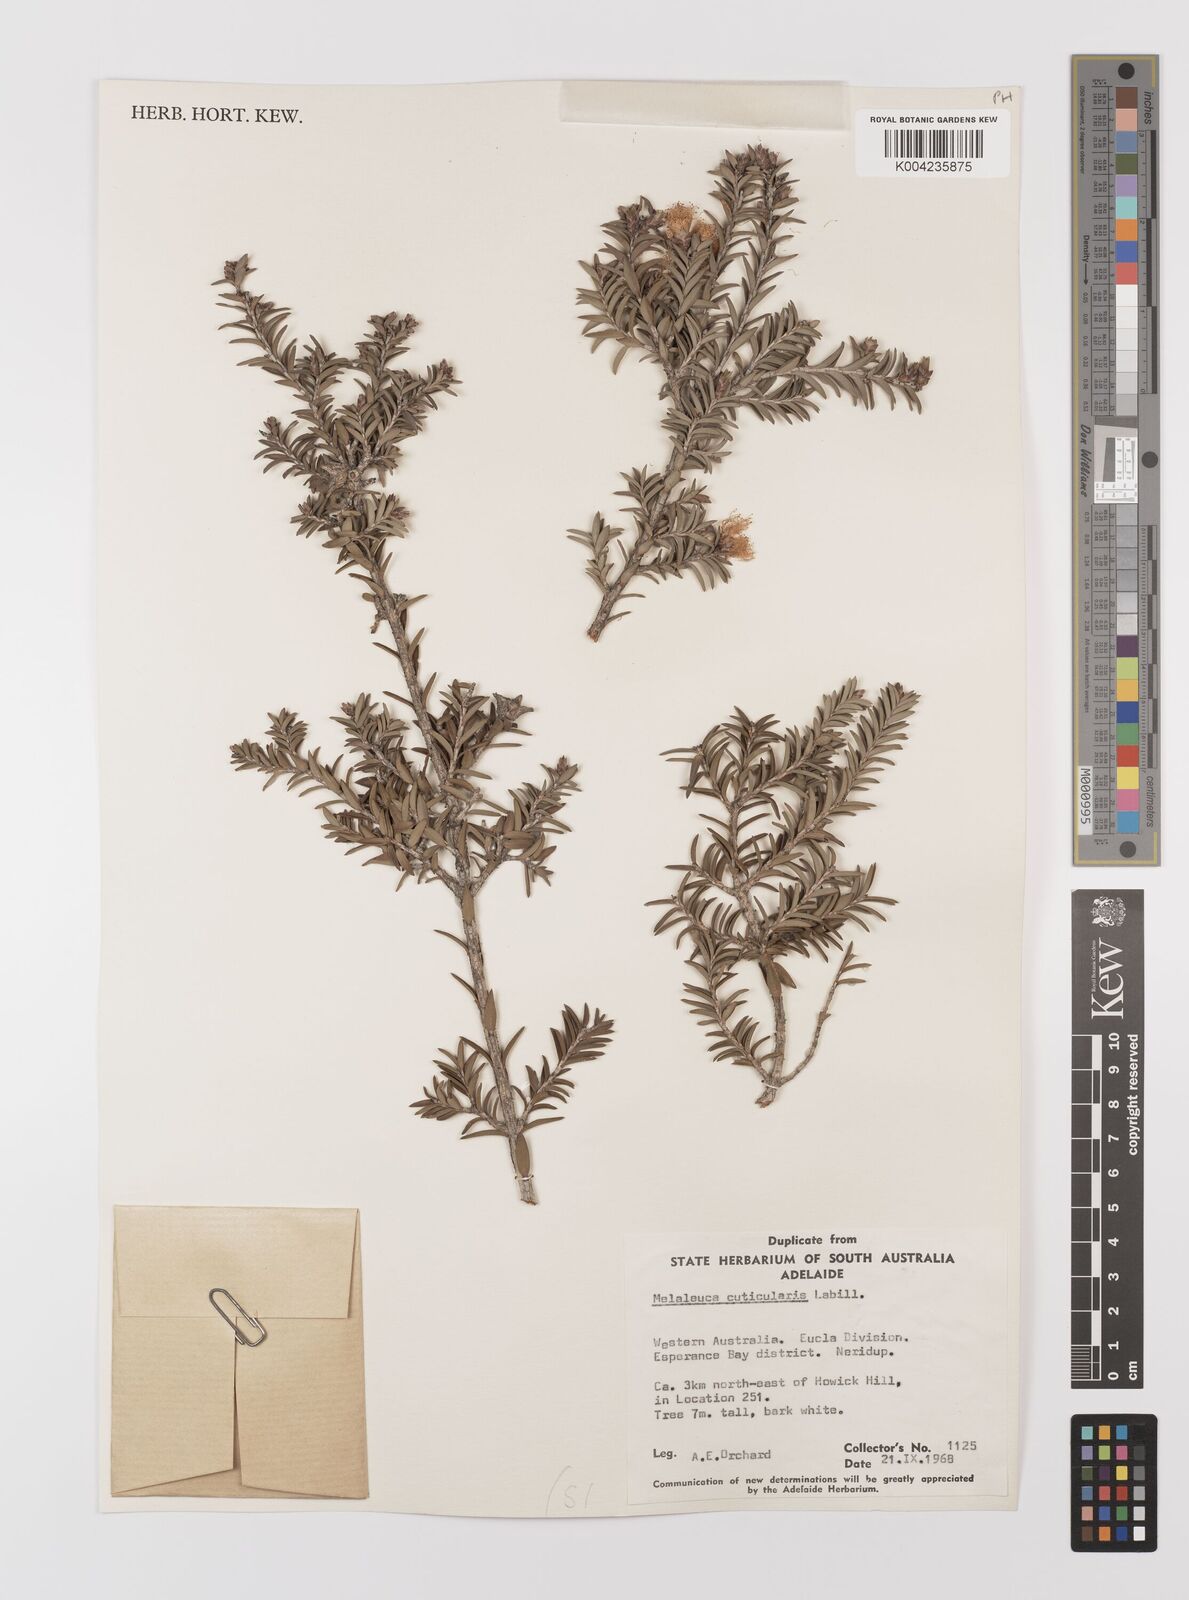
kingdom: Plantae
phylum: Tracheophyta
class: Magnoliopsida
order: Myrtales
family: Myrtaceae
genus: Melaleuca
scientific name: Melaleuca cuticularis
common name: Saltwater paperbark
